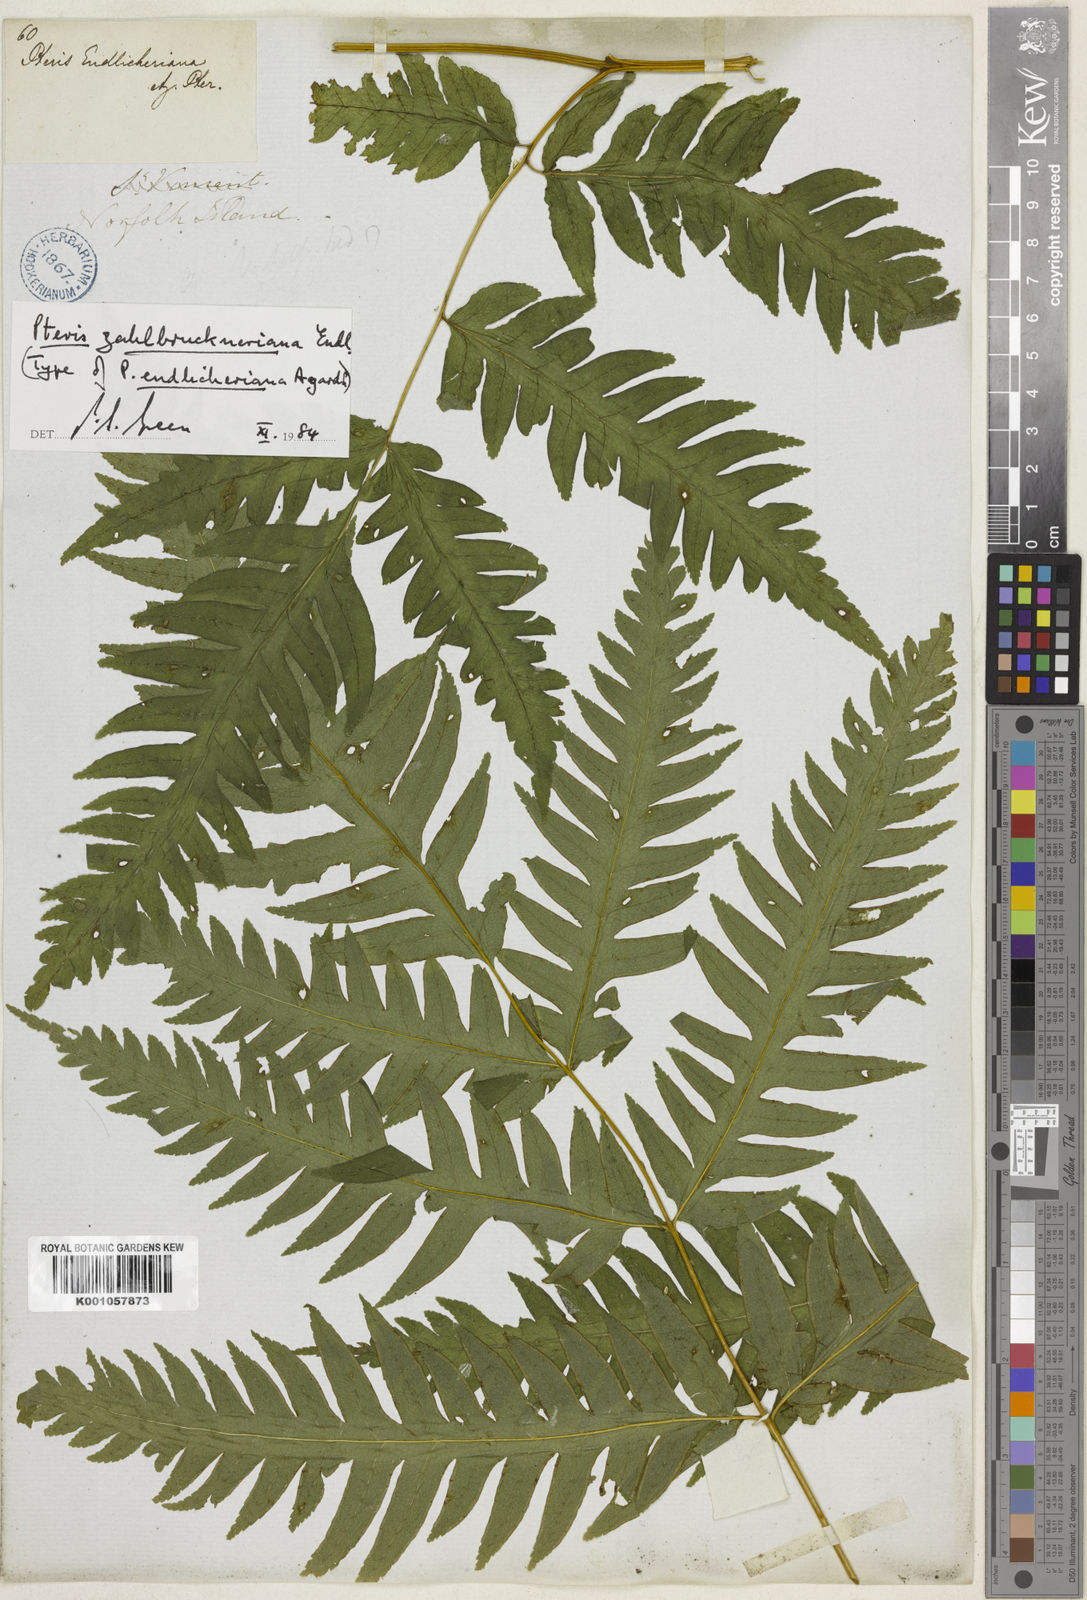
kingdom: Plantae
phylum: Tracheophyta
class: Polypodiopsida
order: Polypodiales
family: Pteridaceae
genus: Pteris
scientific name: Pteris zahlbruckneriana
